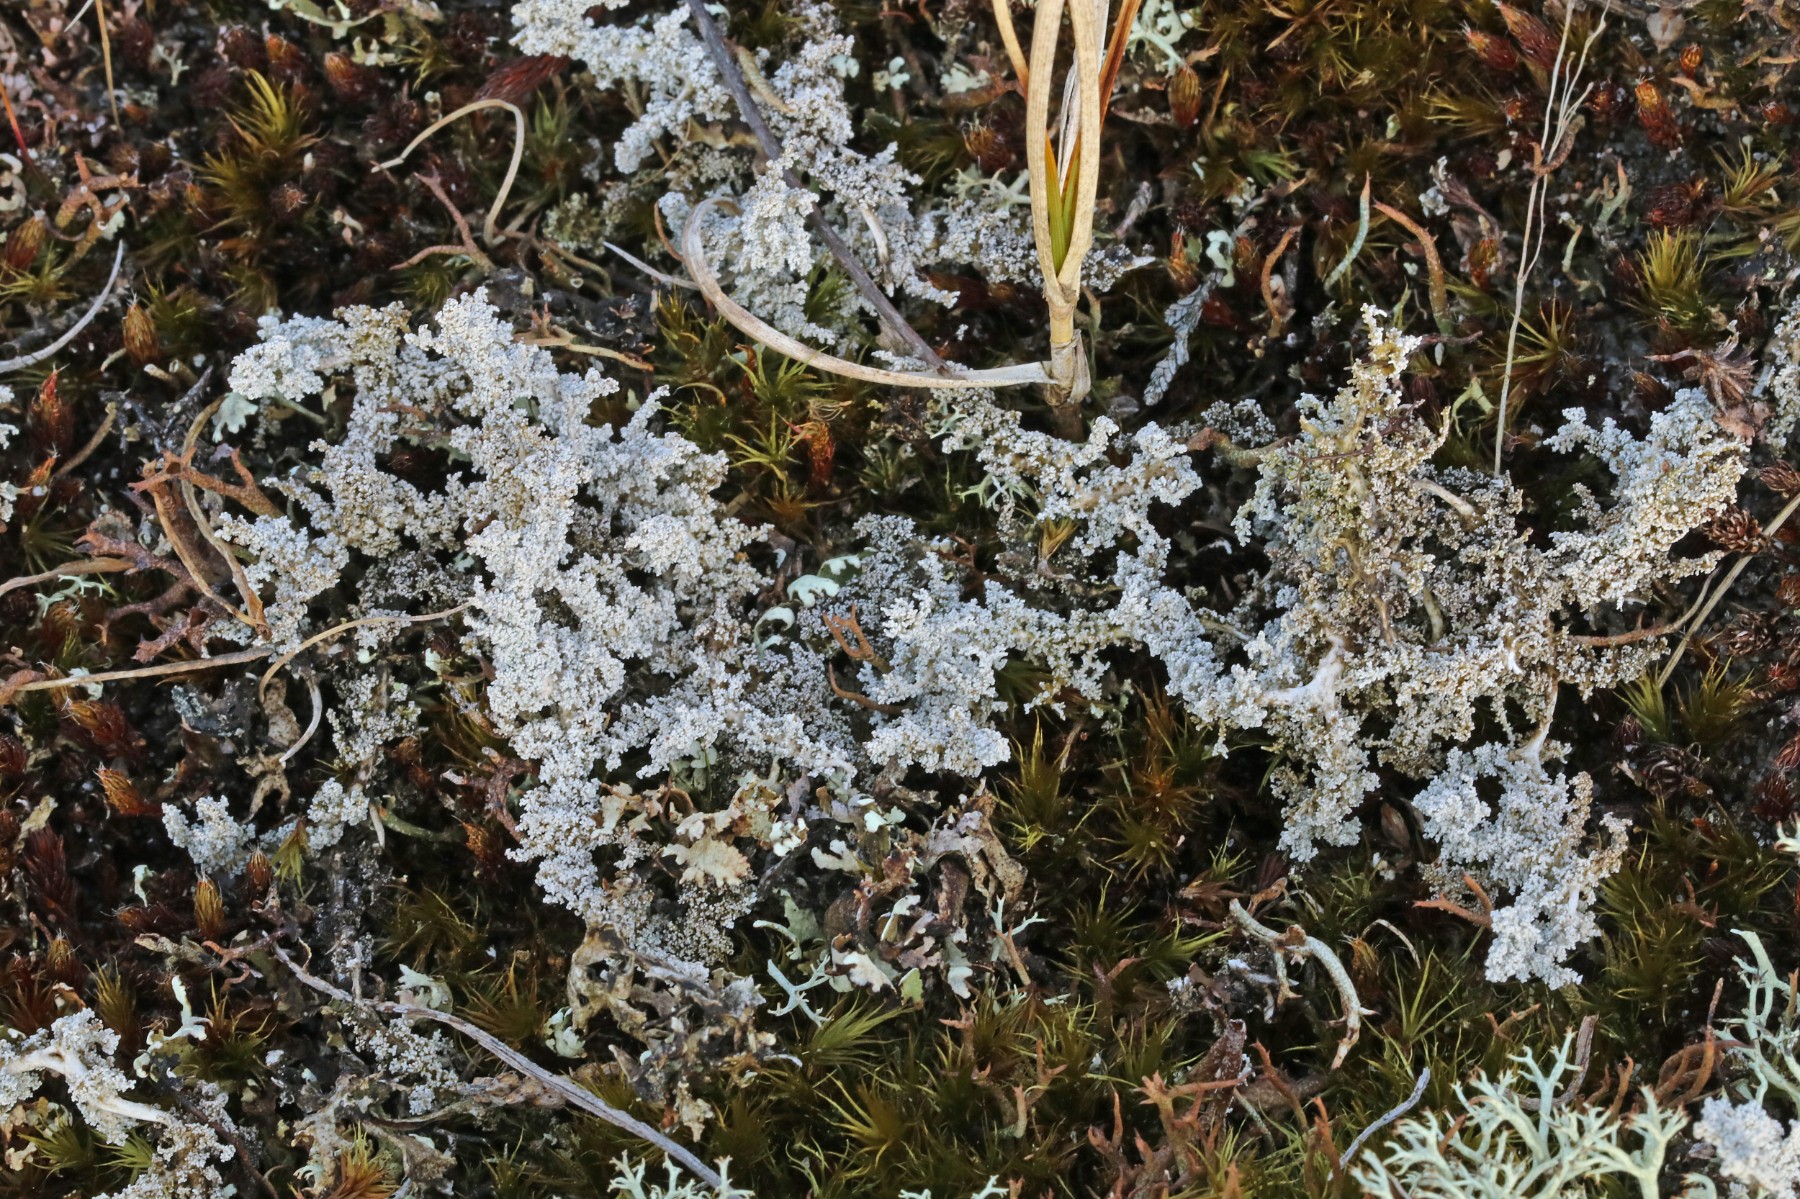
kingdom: Fungi
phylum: Ascomycota
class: Lecanoromycetes
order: Lecanorales
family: Stereocaulaceae
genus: Stereocaulon
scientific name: Stereocaulon saxatile
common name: klit-korallav
